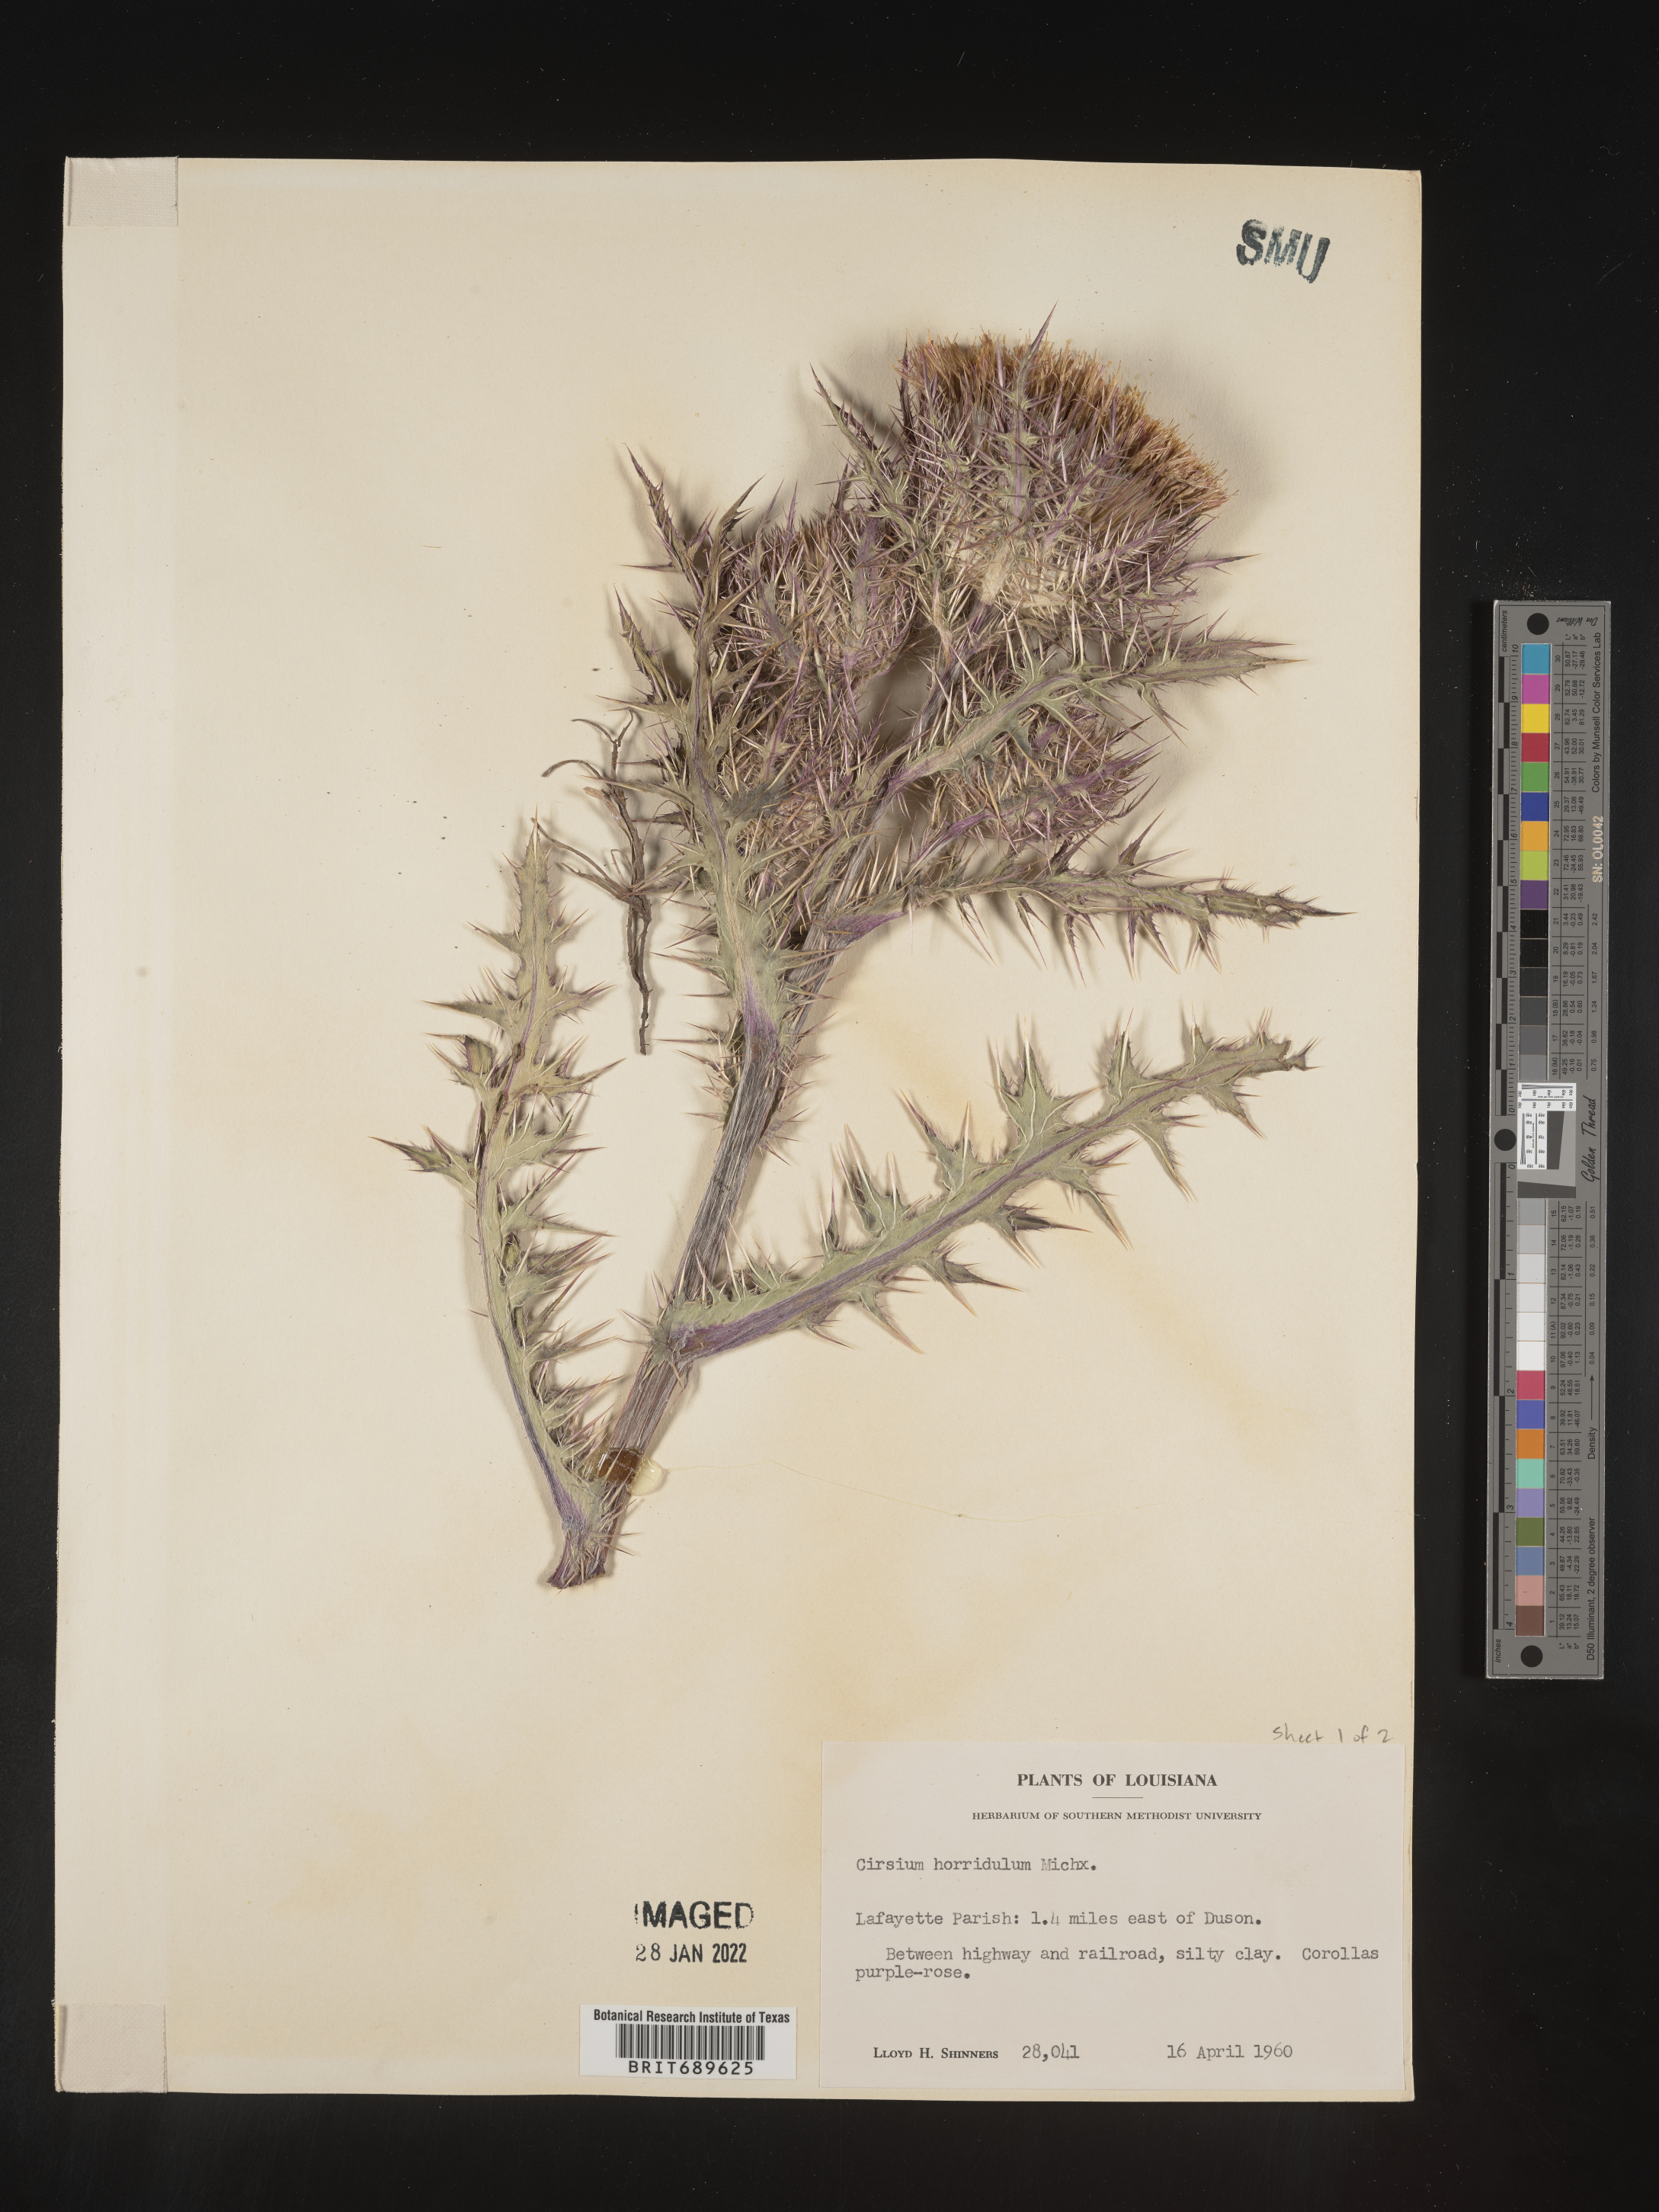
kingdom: Plantae
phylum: Tracheophyta
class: Magnoliopsida
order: Asterales
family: Asteraceae
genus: Cirsium
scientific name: Cirsium horridulum
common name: Bristly thistle
